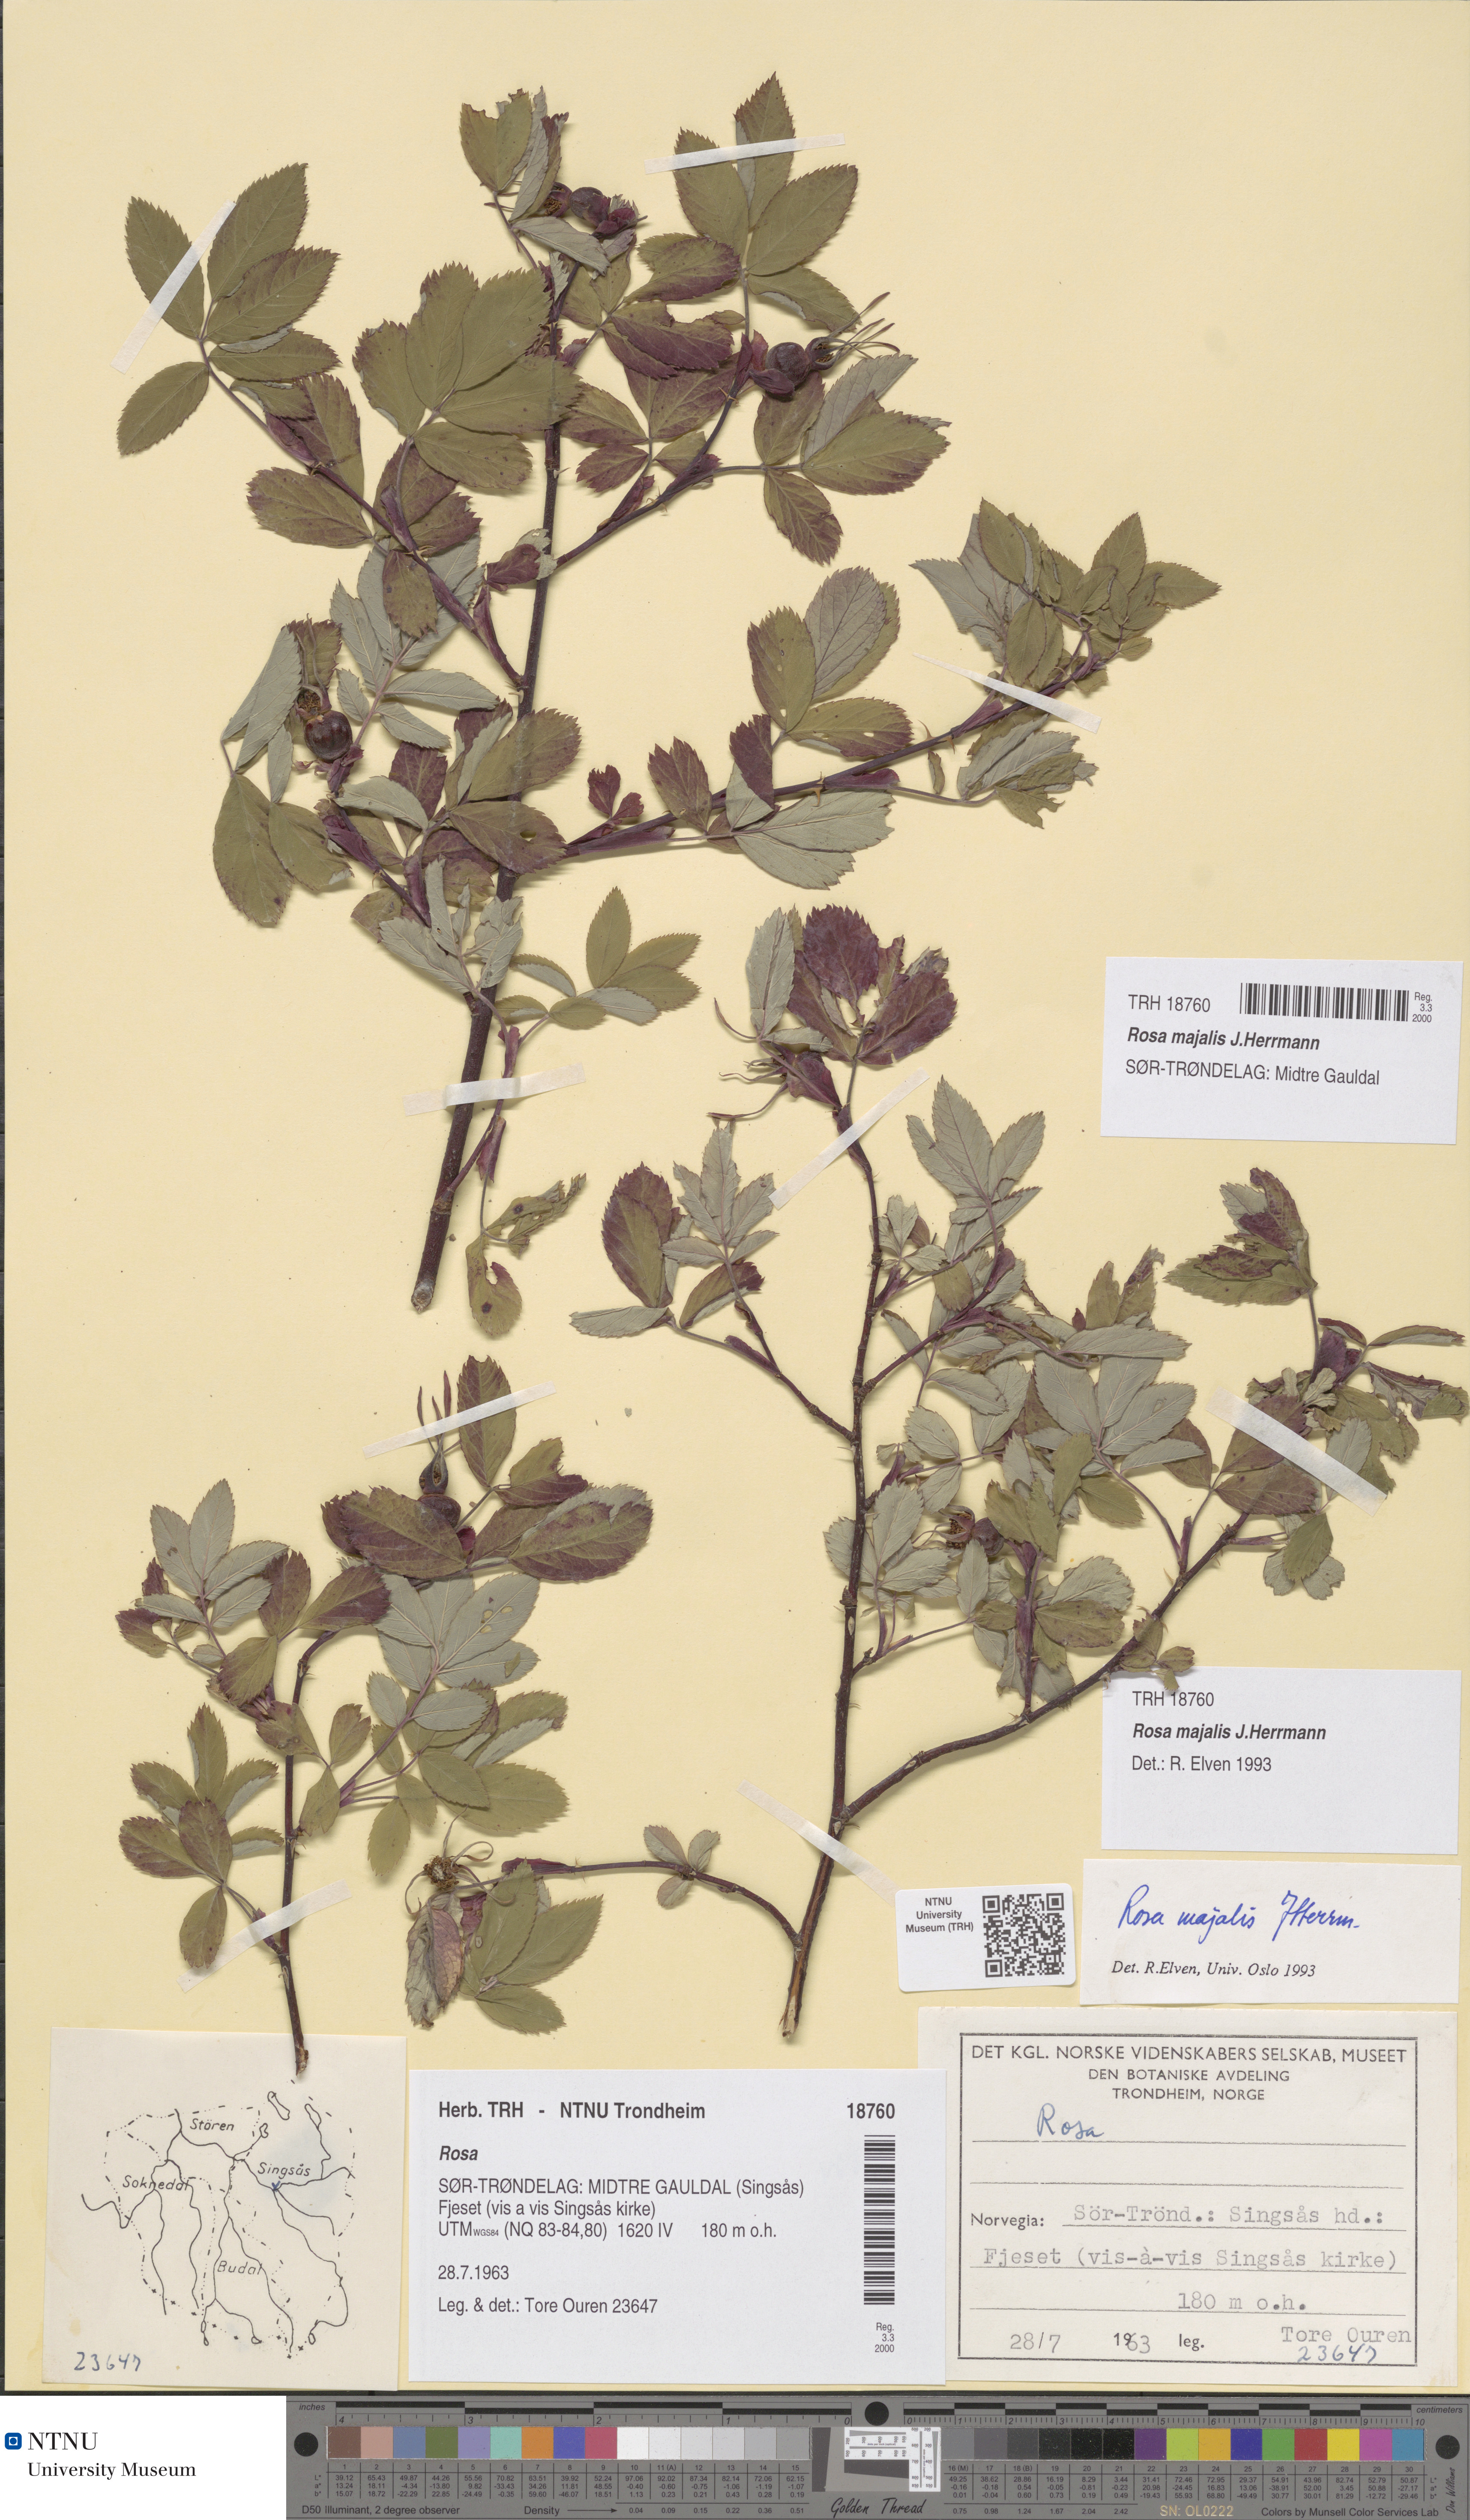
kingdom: Plantae
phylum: Tracheophyta
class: Magnoliopsida
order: Rosales
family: Rosaceae
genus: Rosa
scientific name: Rosa majalis
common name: Cinnamon rose
